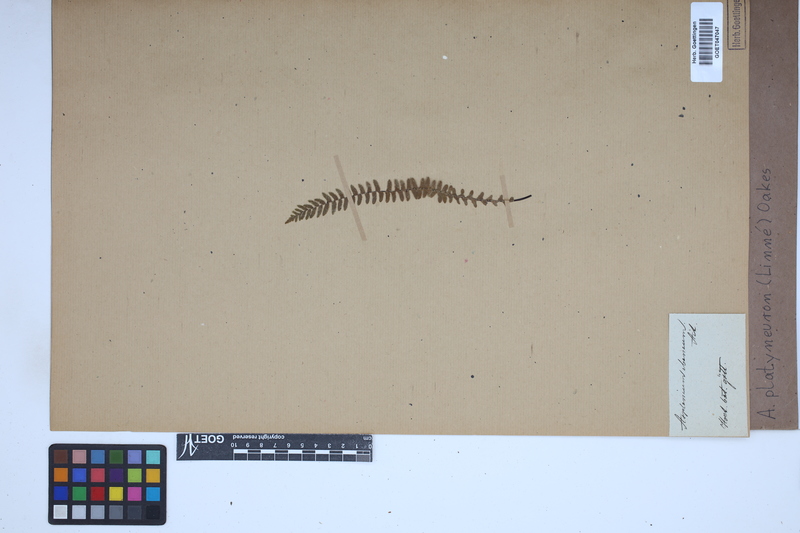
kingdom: Plantae
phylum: Tracheophyta
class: Polypodiopsida
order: Polypodiales
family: Aspleniaceae
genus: Asplenium
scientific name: Asplenium platyneuron
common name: Ebony spleenwort
